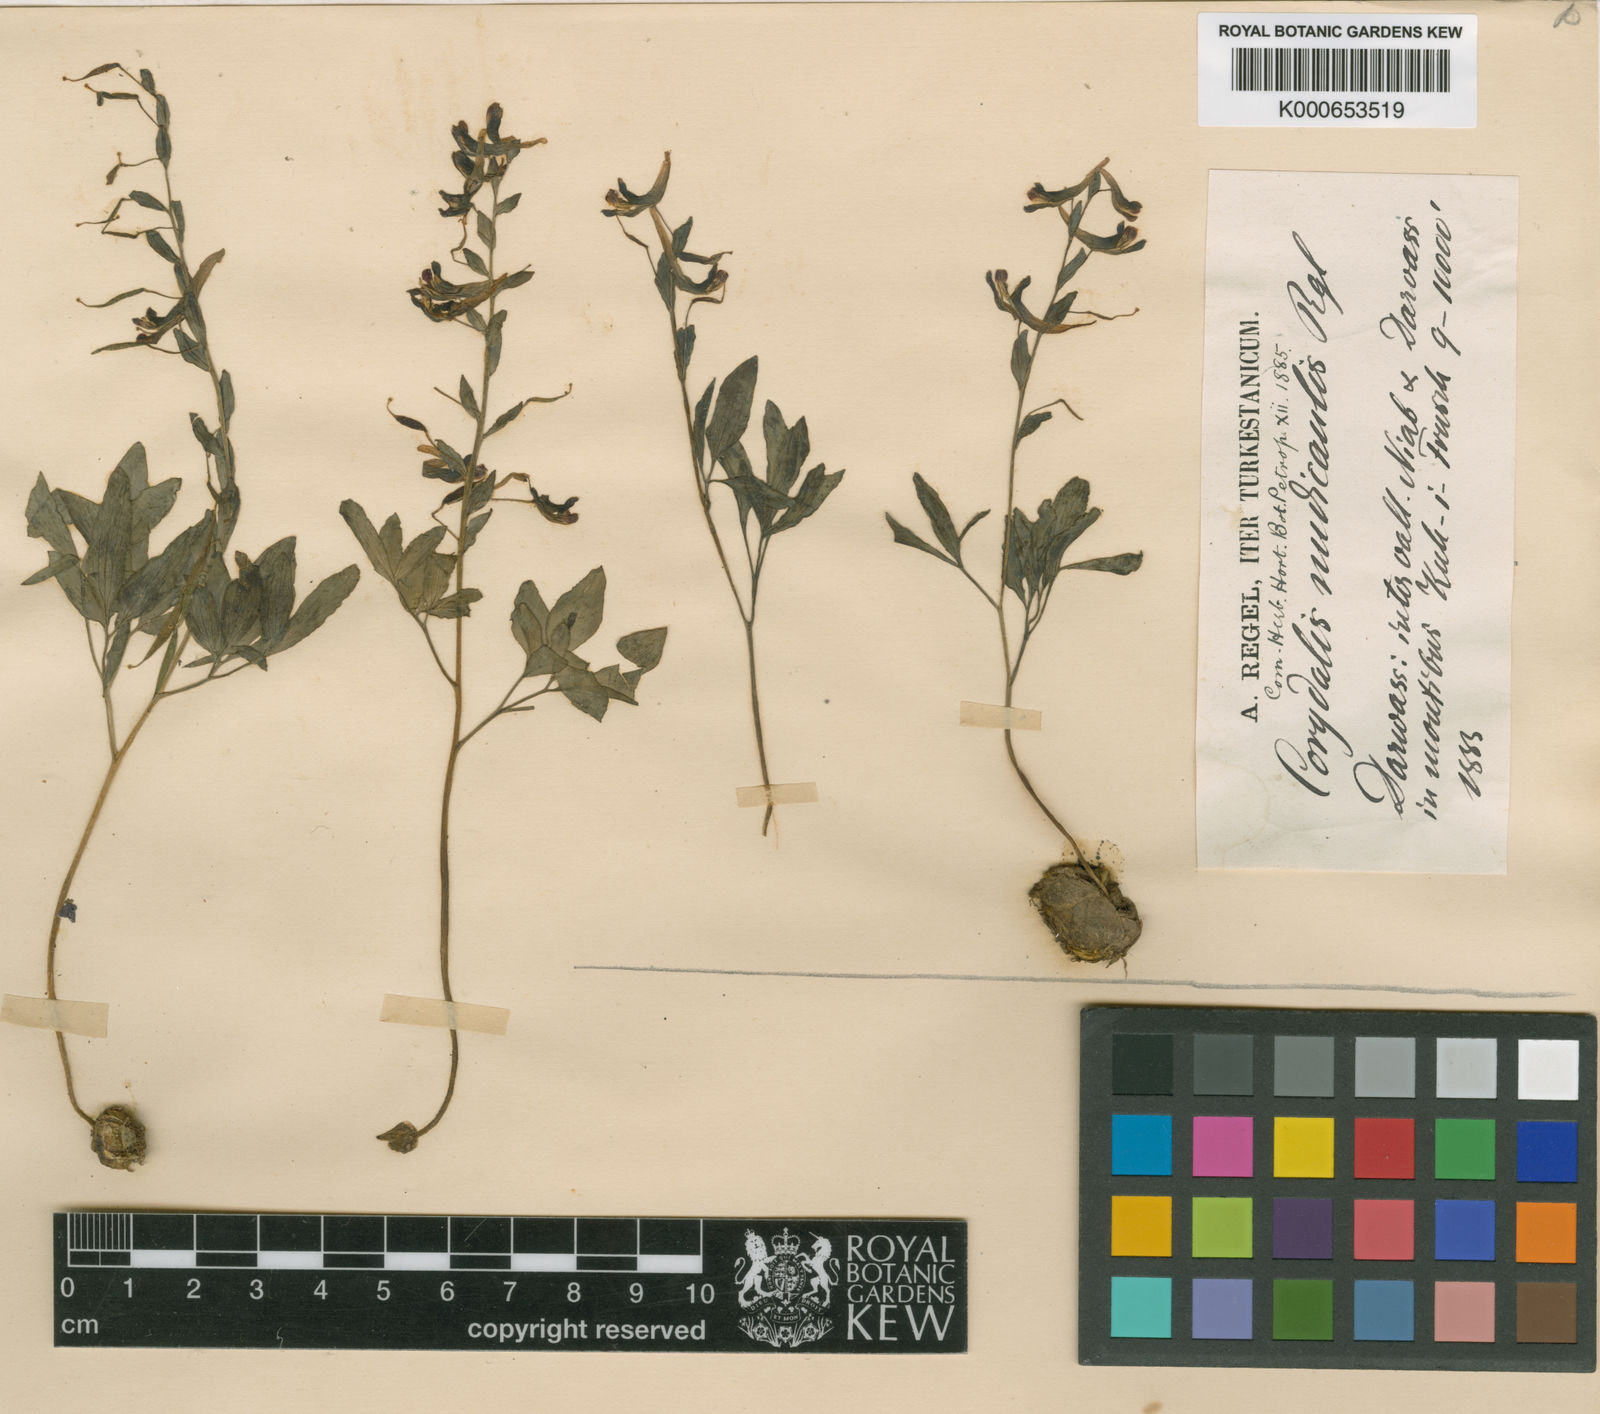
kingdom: Plantae
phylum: Tracheophyta
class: Magnoliopsida
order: Ranunculales
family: Papaveraceae
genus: Corydalis
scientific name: Corydalis nudicaulis
